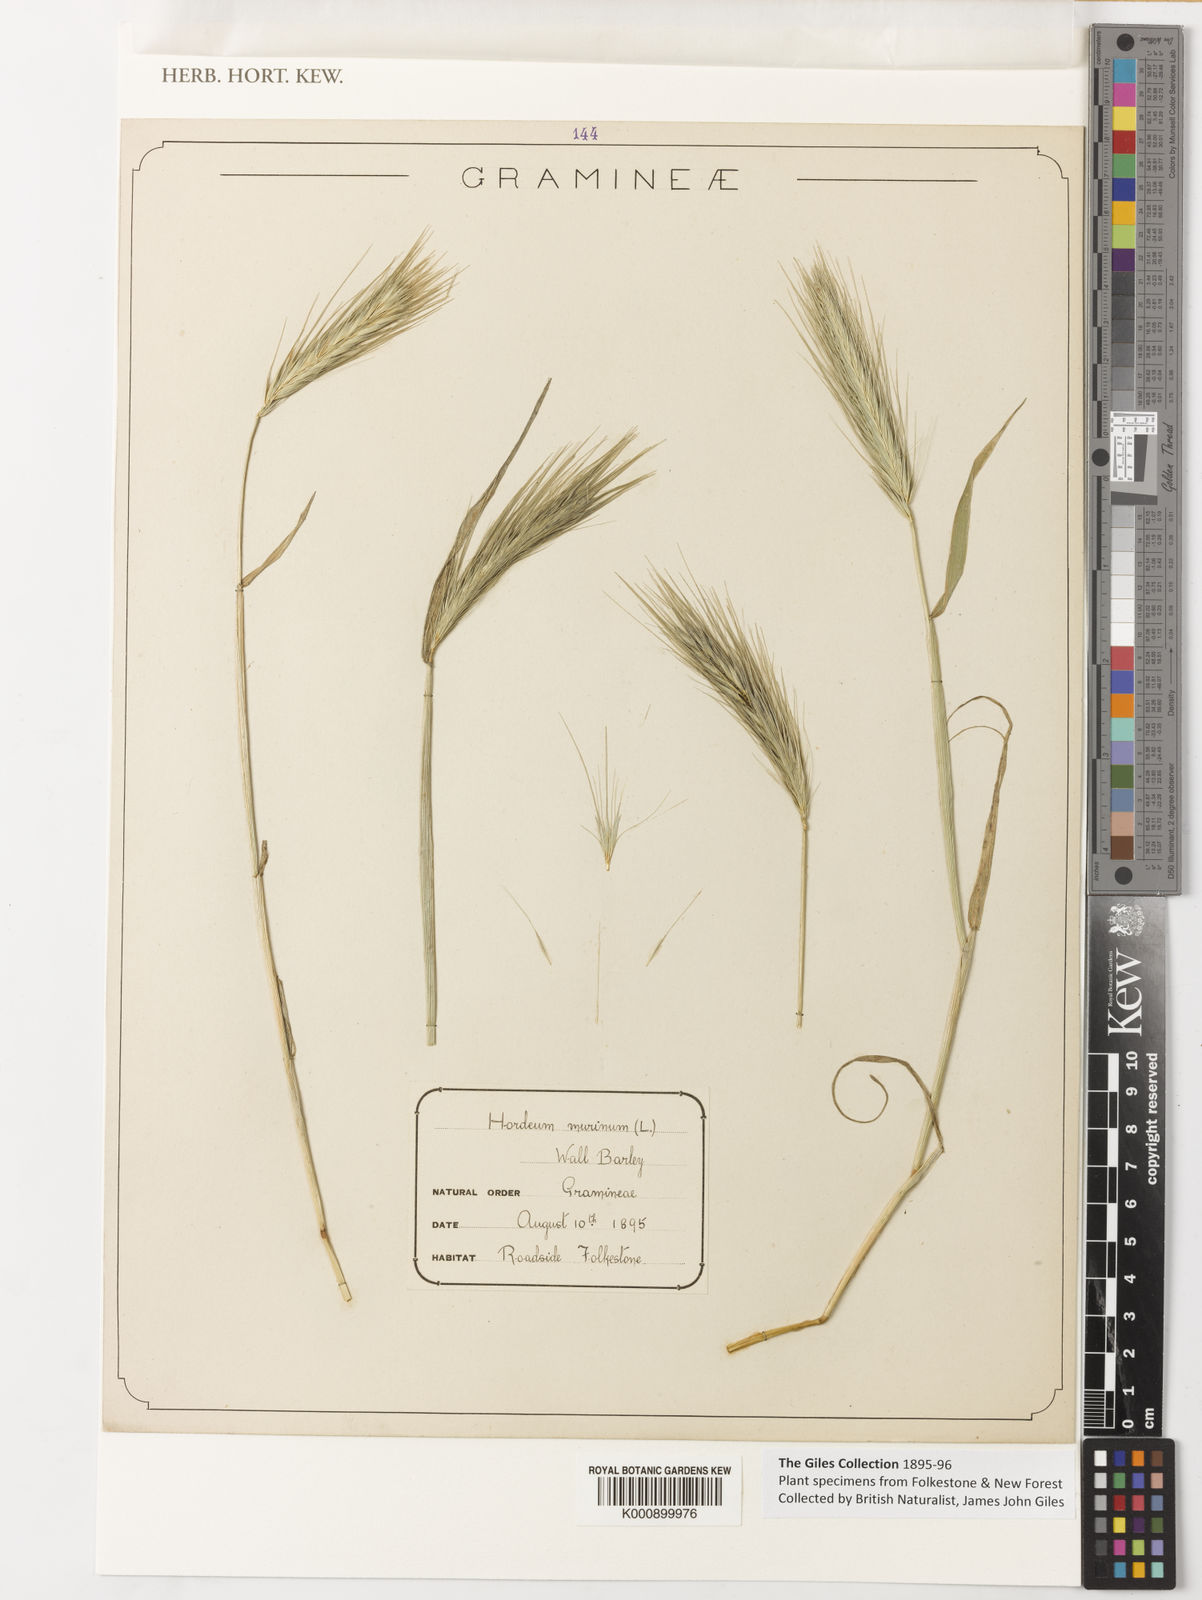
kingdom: Plantae
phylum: Tracheophyta
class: Liliopsida
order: Poales
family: Poaceae
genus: Hordeum
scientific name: Hordeum murinum
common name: Wall barley
